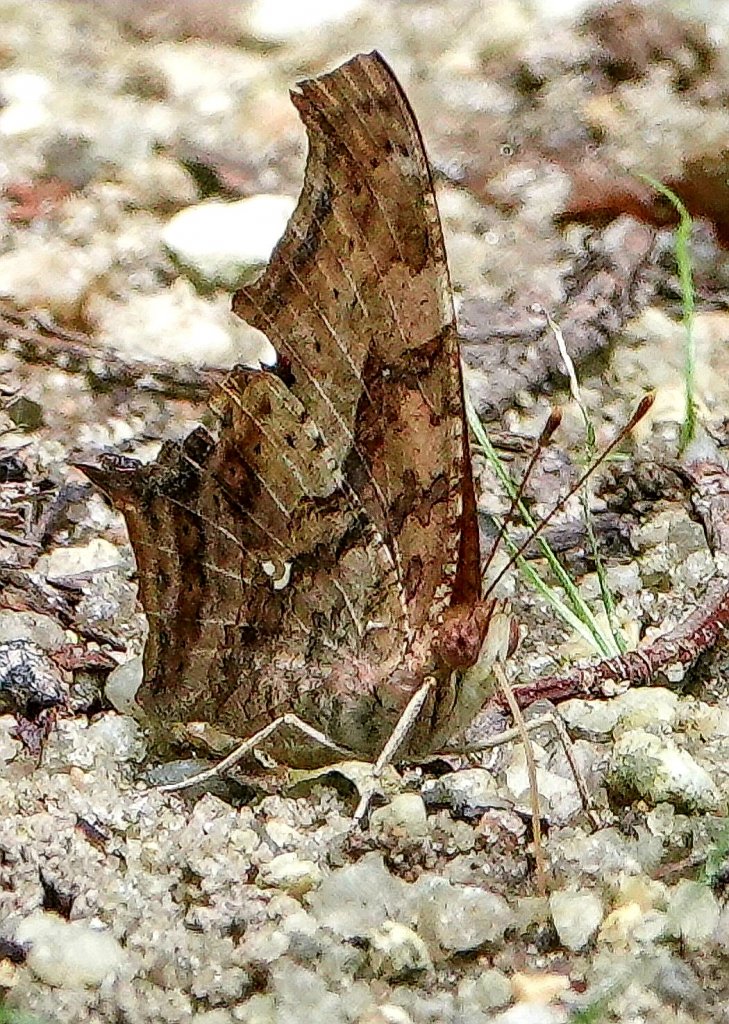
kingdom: Animalia
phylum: Arthropoda
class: Insecta
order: Lepidoptera
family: Nymphalidae
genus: Polygonia
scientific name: Polygonia interrogationis
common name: Question Mark
